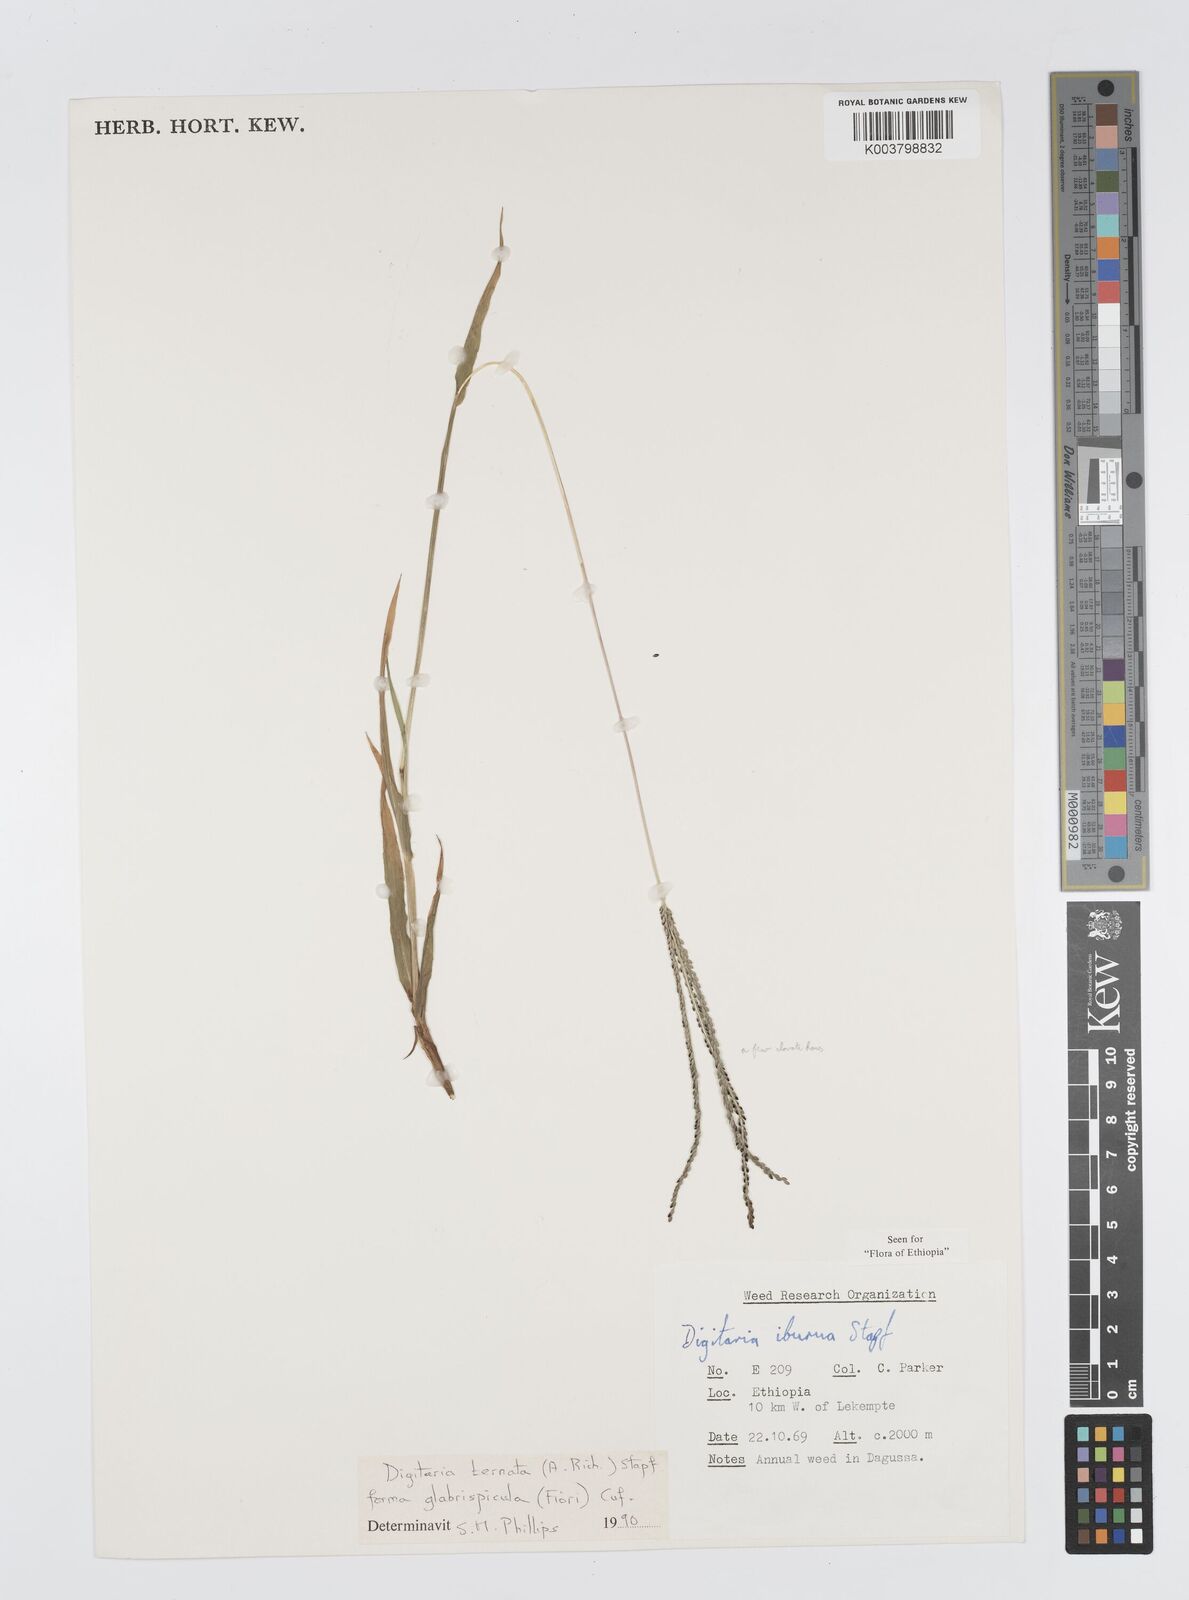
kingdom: Plantae
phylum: Tracheophyta
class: Liliopsida
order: Poales
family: Poaceae
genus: Digitaria
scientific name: Digitaria ternata
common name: Blackseed crabgrass
